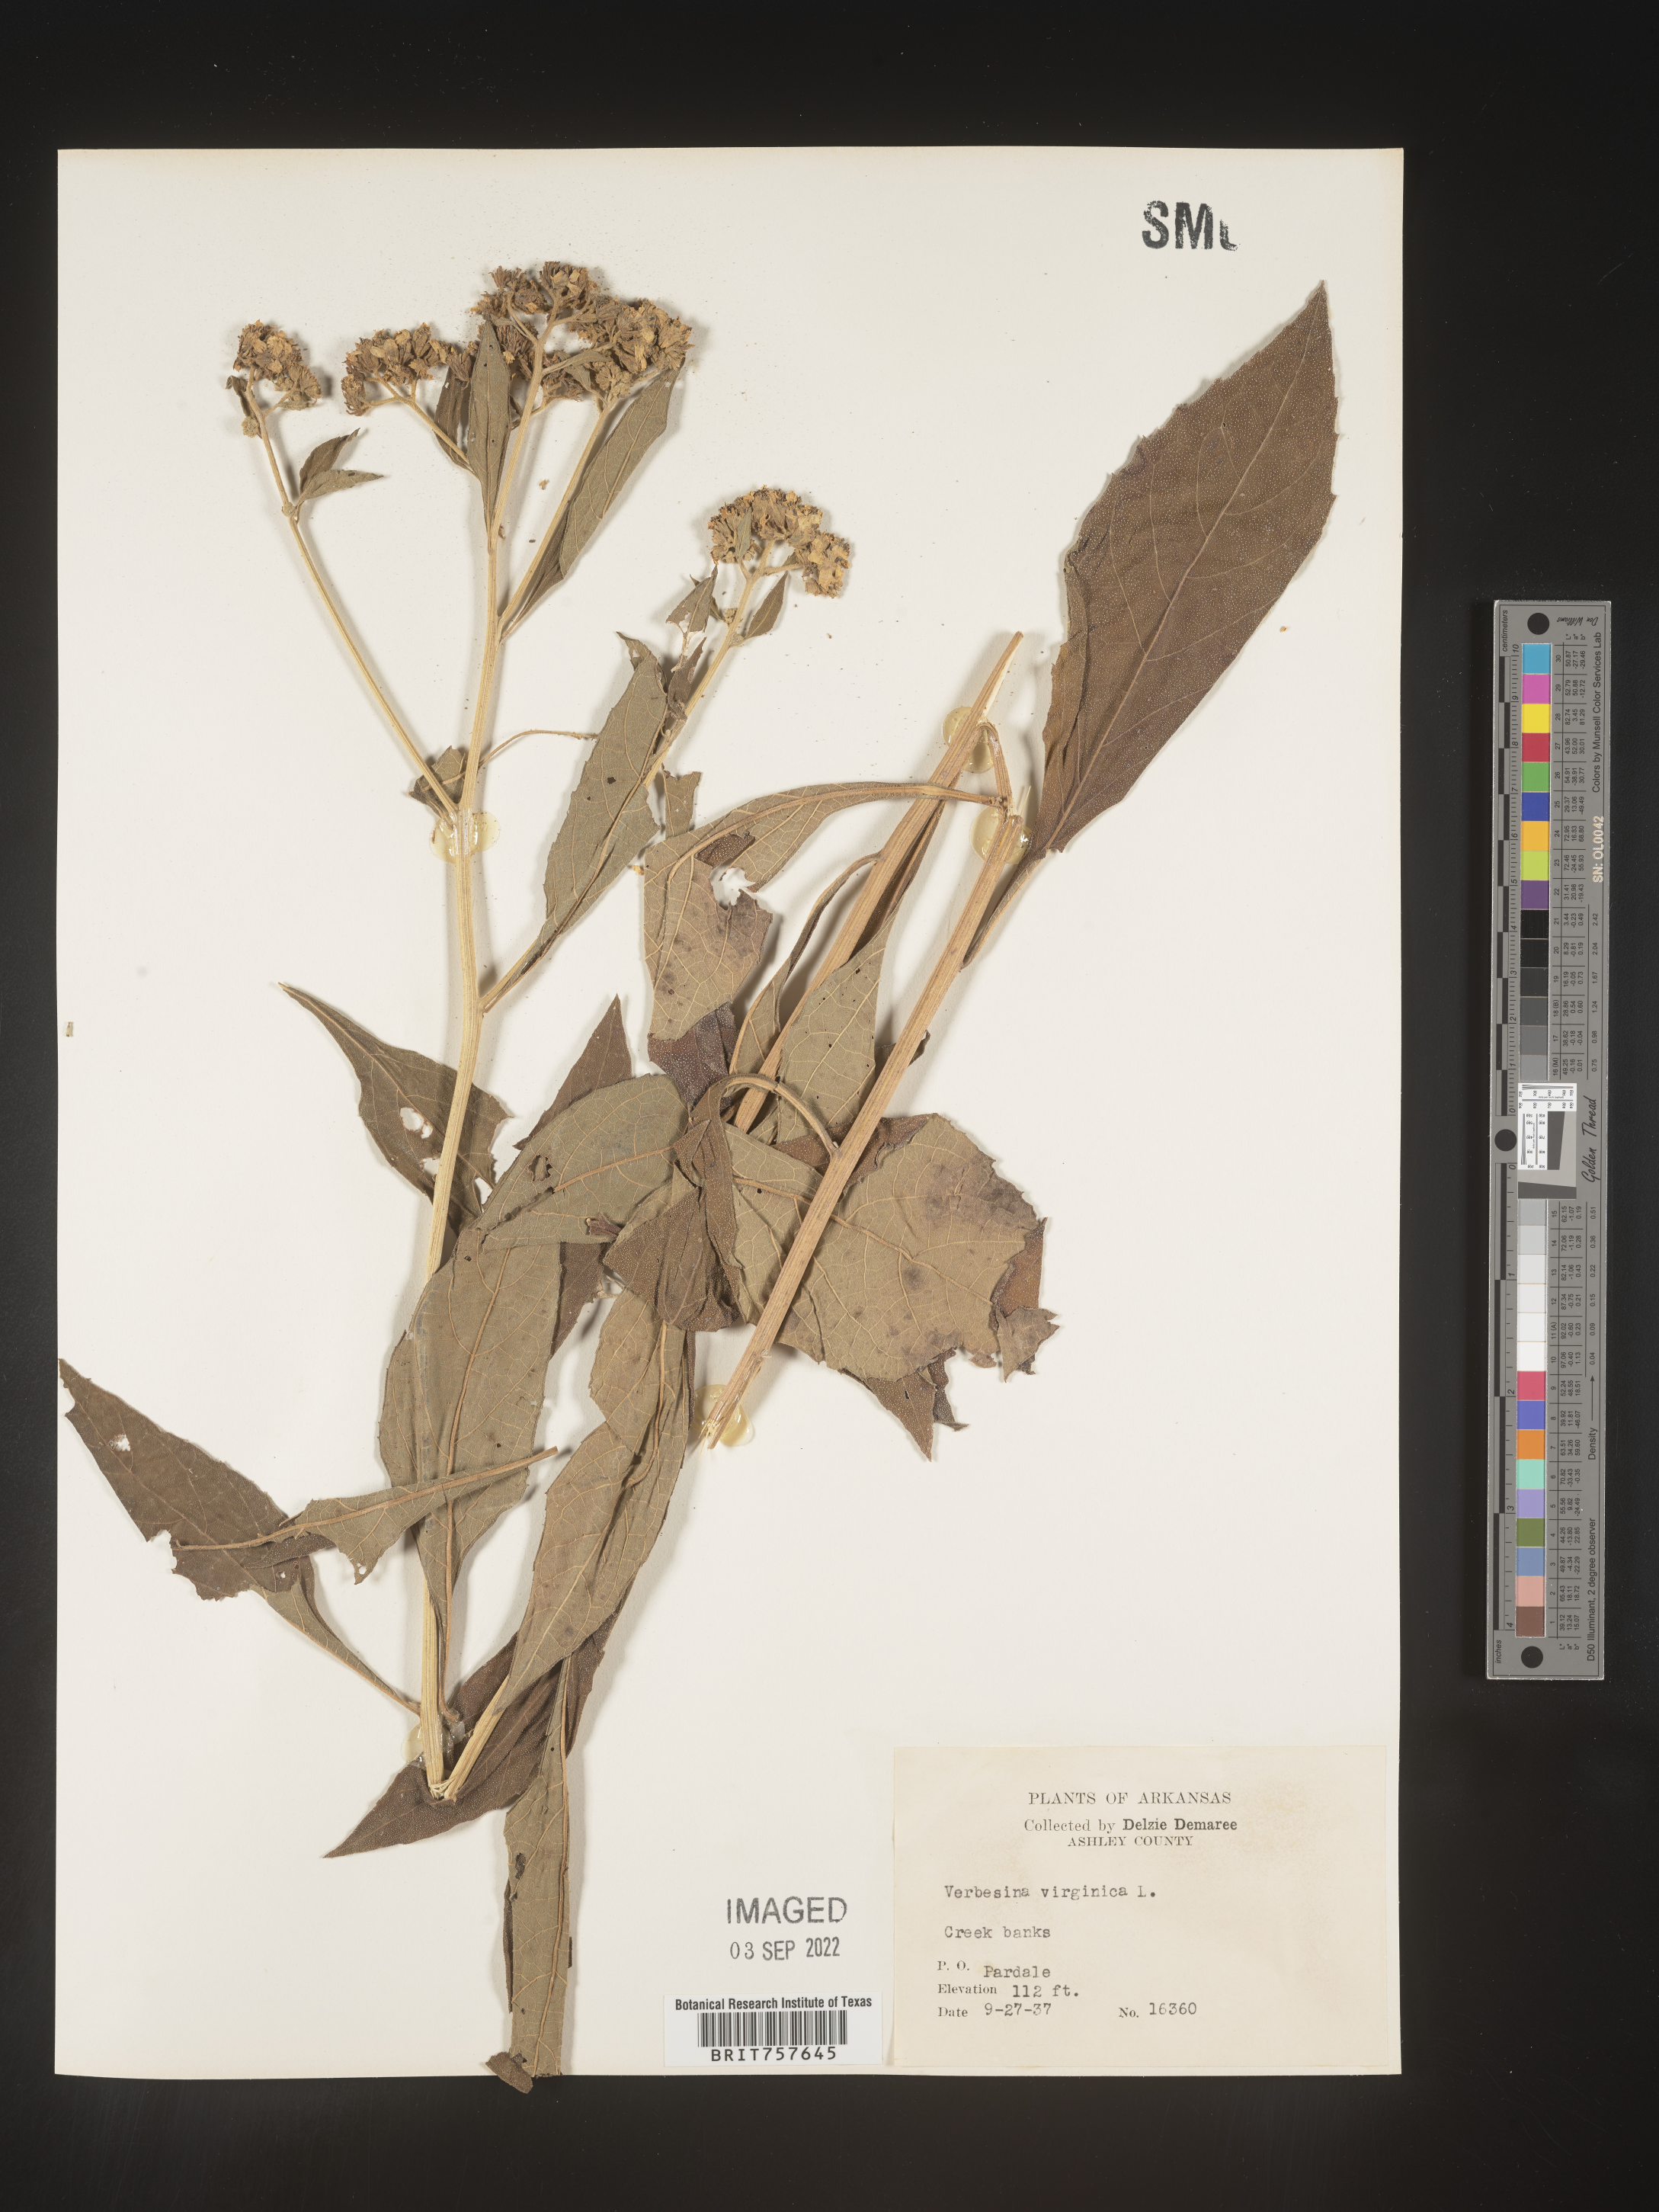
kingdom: Plantae
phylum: Tracheophyta
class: Magnoliopsida
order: Asterales
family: Asteraceae
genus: Verbesina
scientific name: Verbesina virginica
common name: Frostweed
